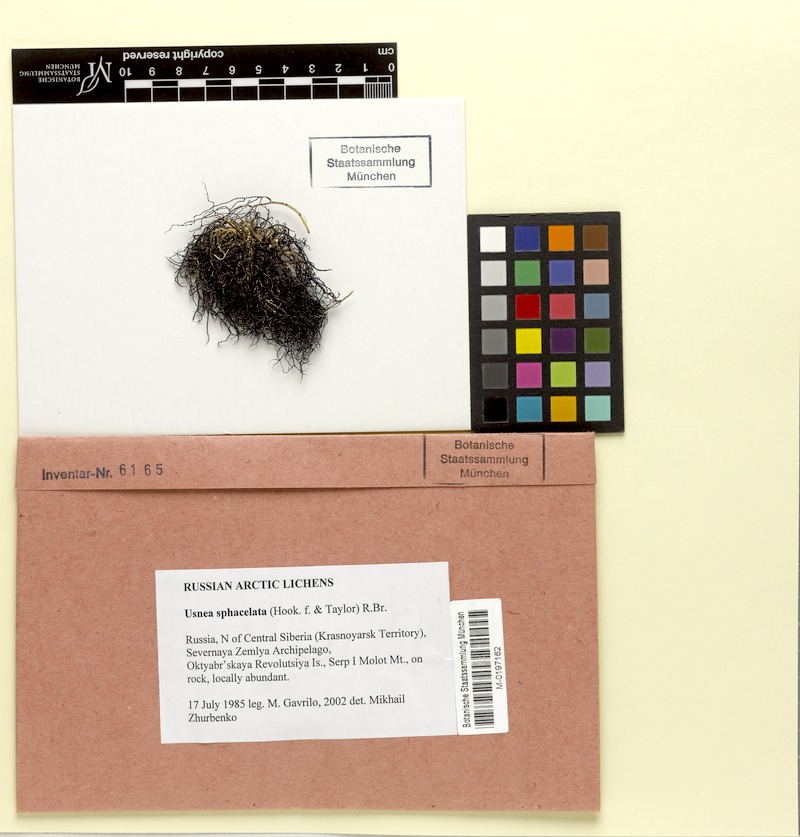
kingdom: Fungi
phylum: Ascomycota
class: Lecanoromycetes
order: Lecanorales
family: Parmeliaceae
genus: Usnea
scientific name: Usnea sphacelata
